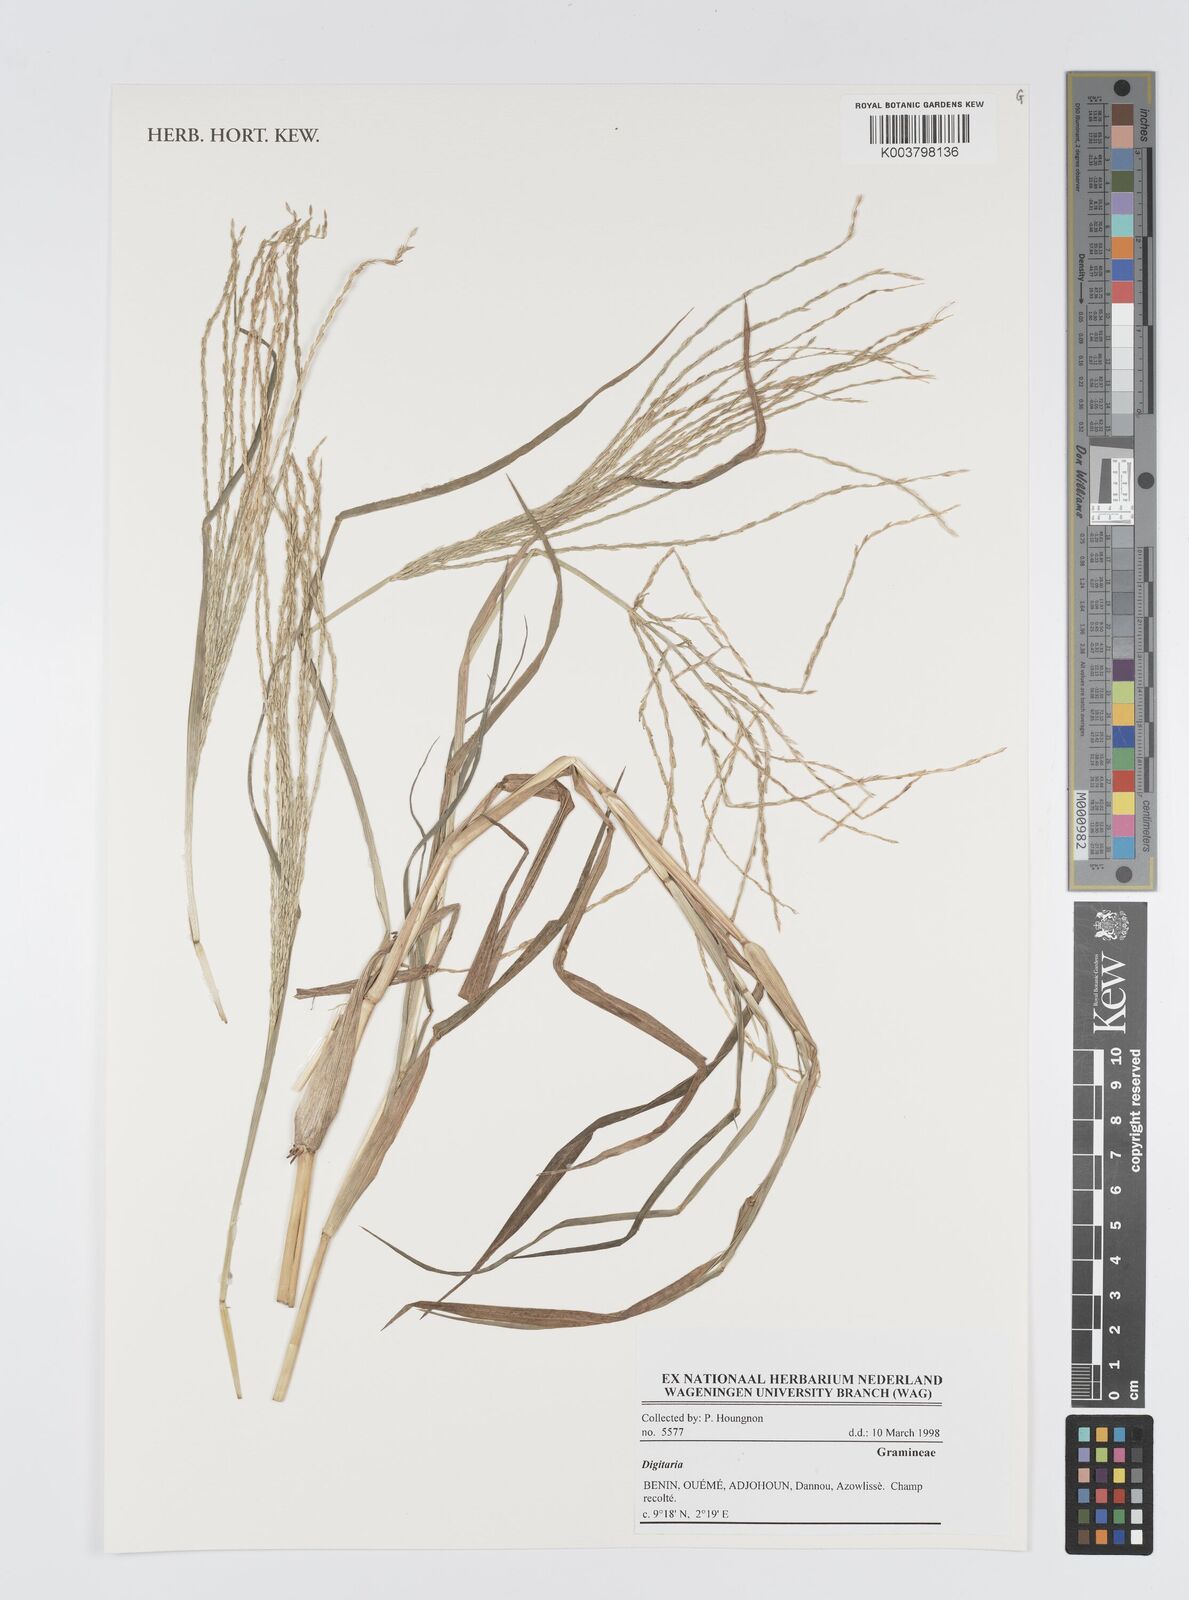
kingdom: Plantae
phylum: Tracheophyta
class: Liliopsida
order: Poales
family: Poaceae
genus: Digitaria
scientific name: Digitaria
